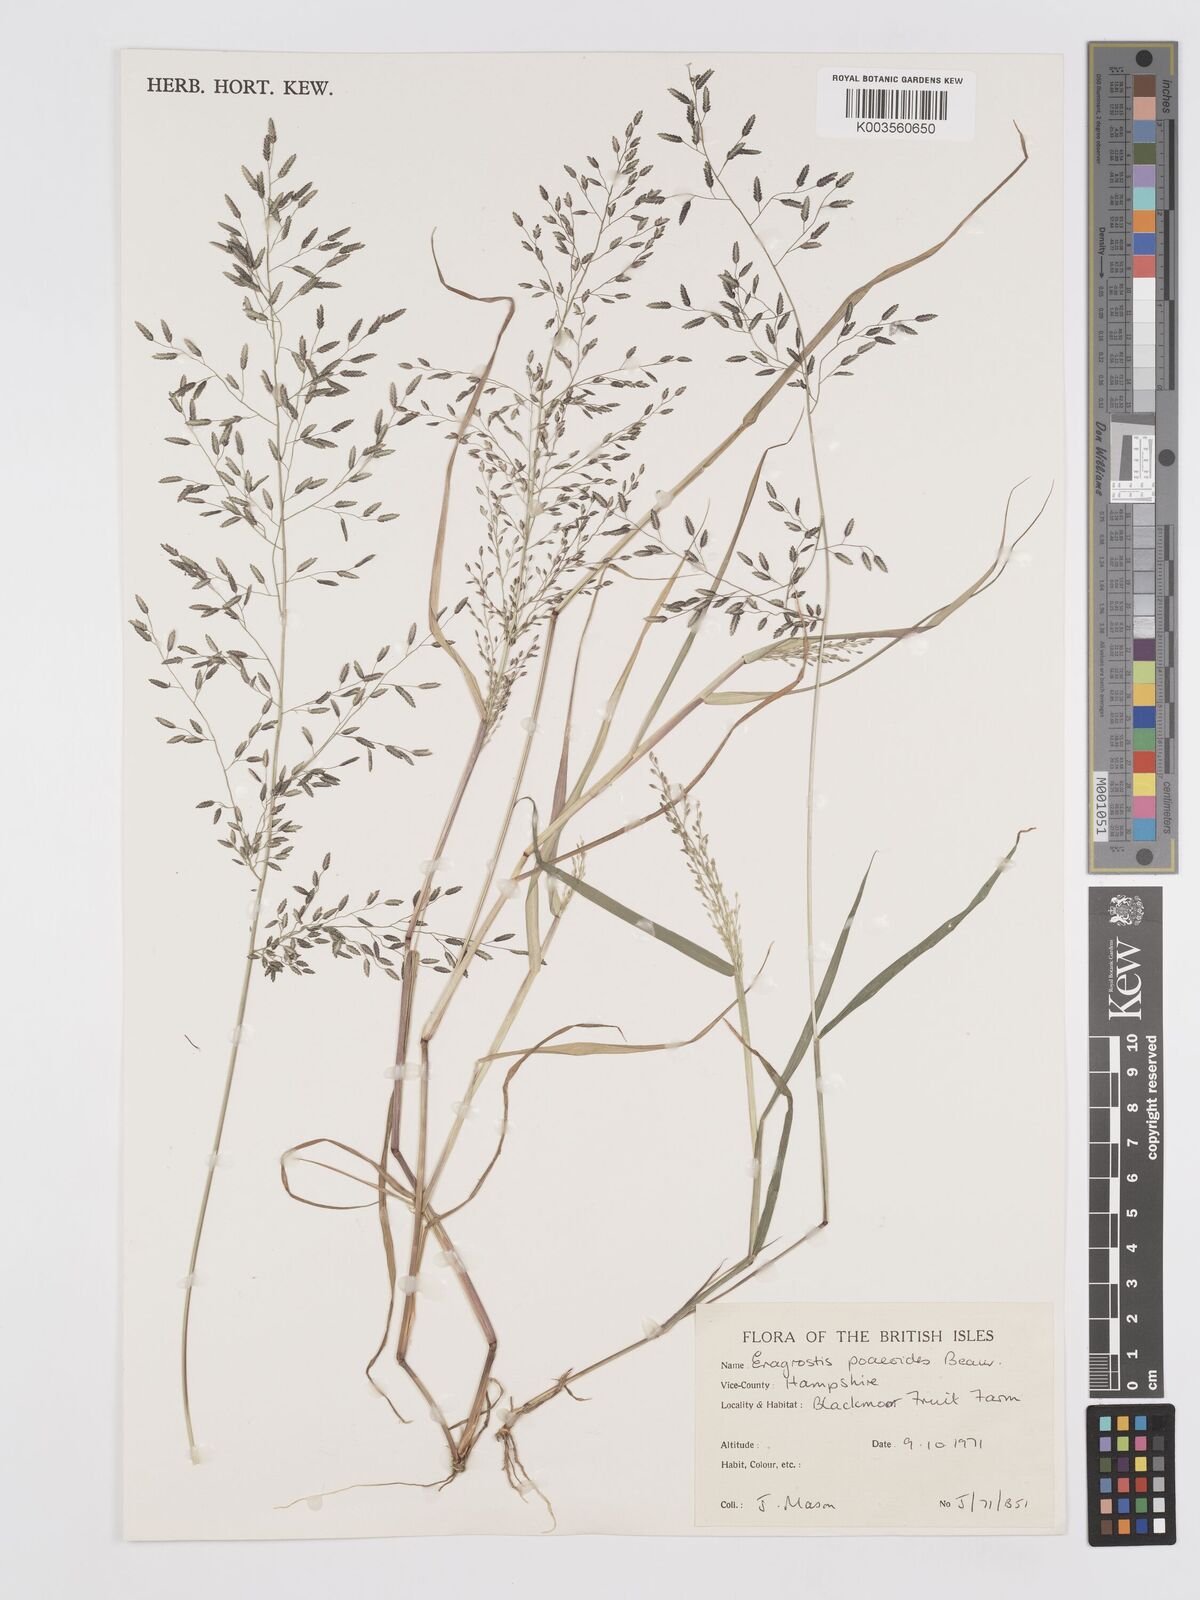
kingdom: Plantae
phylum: Tracheophyta
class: Liliopsida
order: Poales
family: Poaceae
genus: Eragrostis
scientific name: Eragrostis minor
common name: Small love-grass
